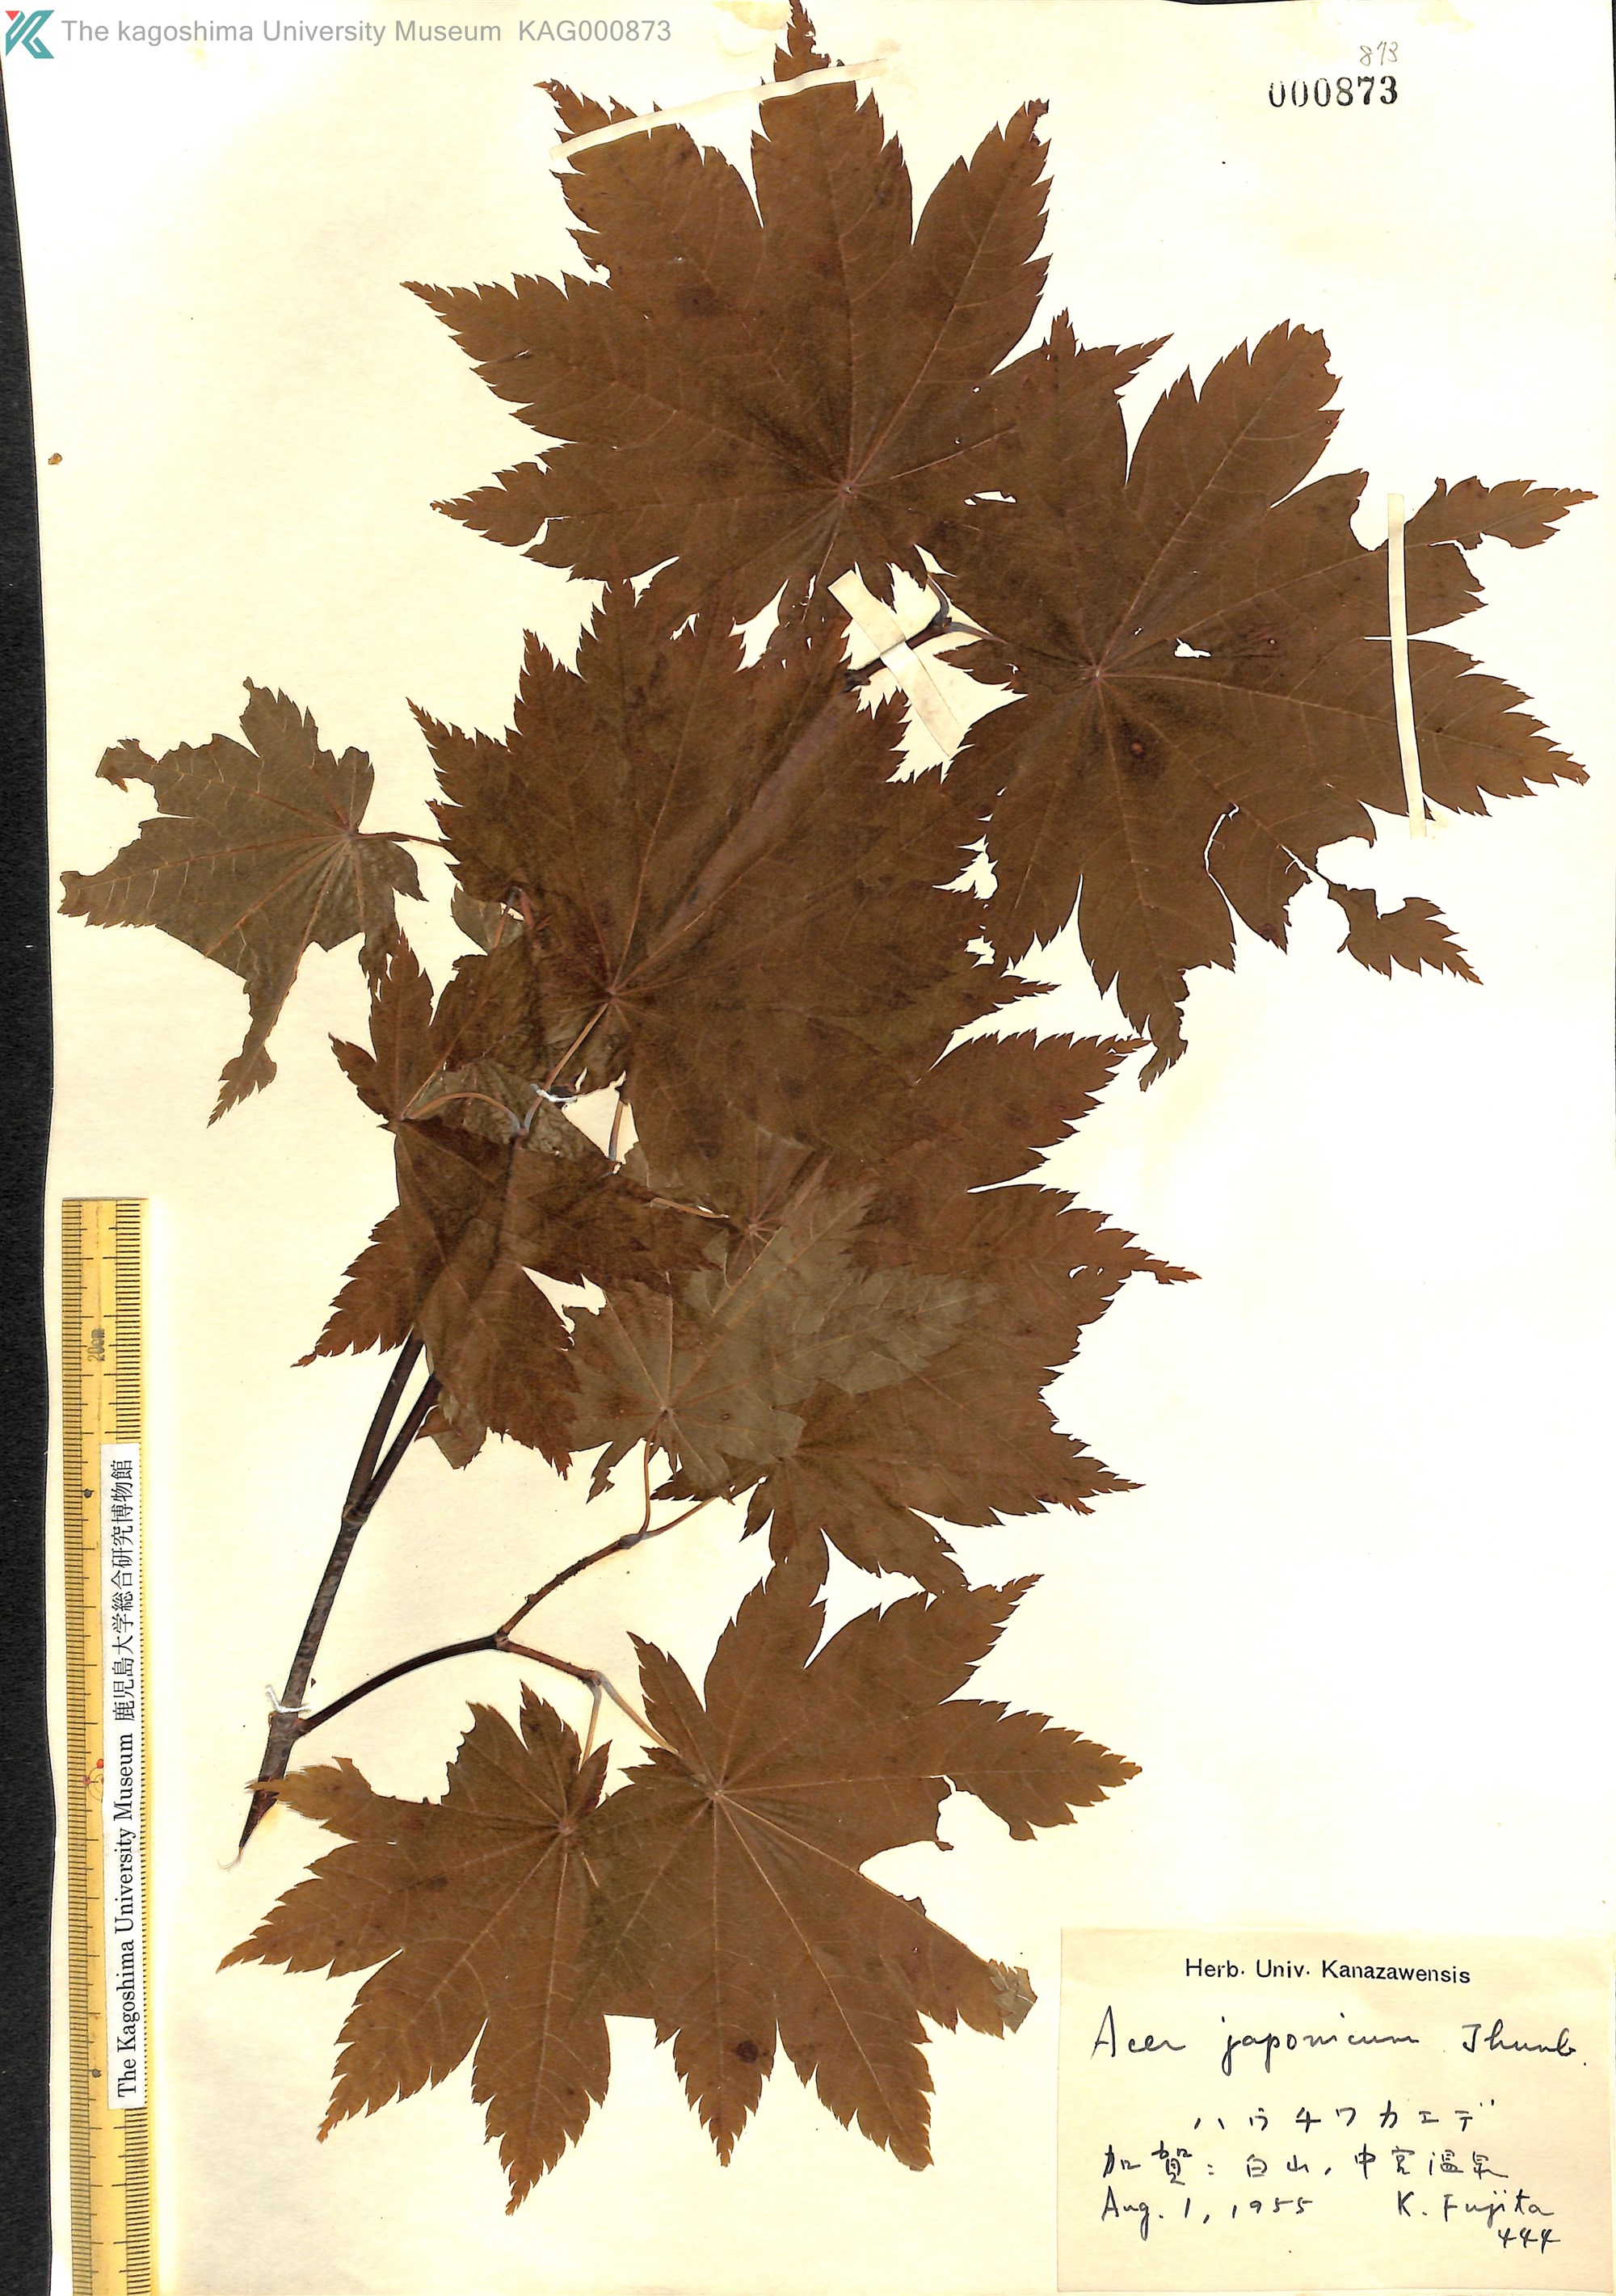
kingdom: Plantae
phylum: Tracheophyta
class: Magnoliopsida
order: Sapindales
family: Sapindaceae
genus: Acer
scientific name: Acer japonicum
